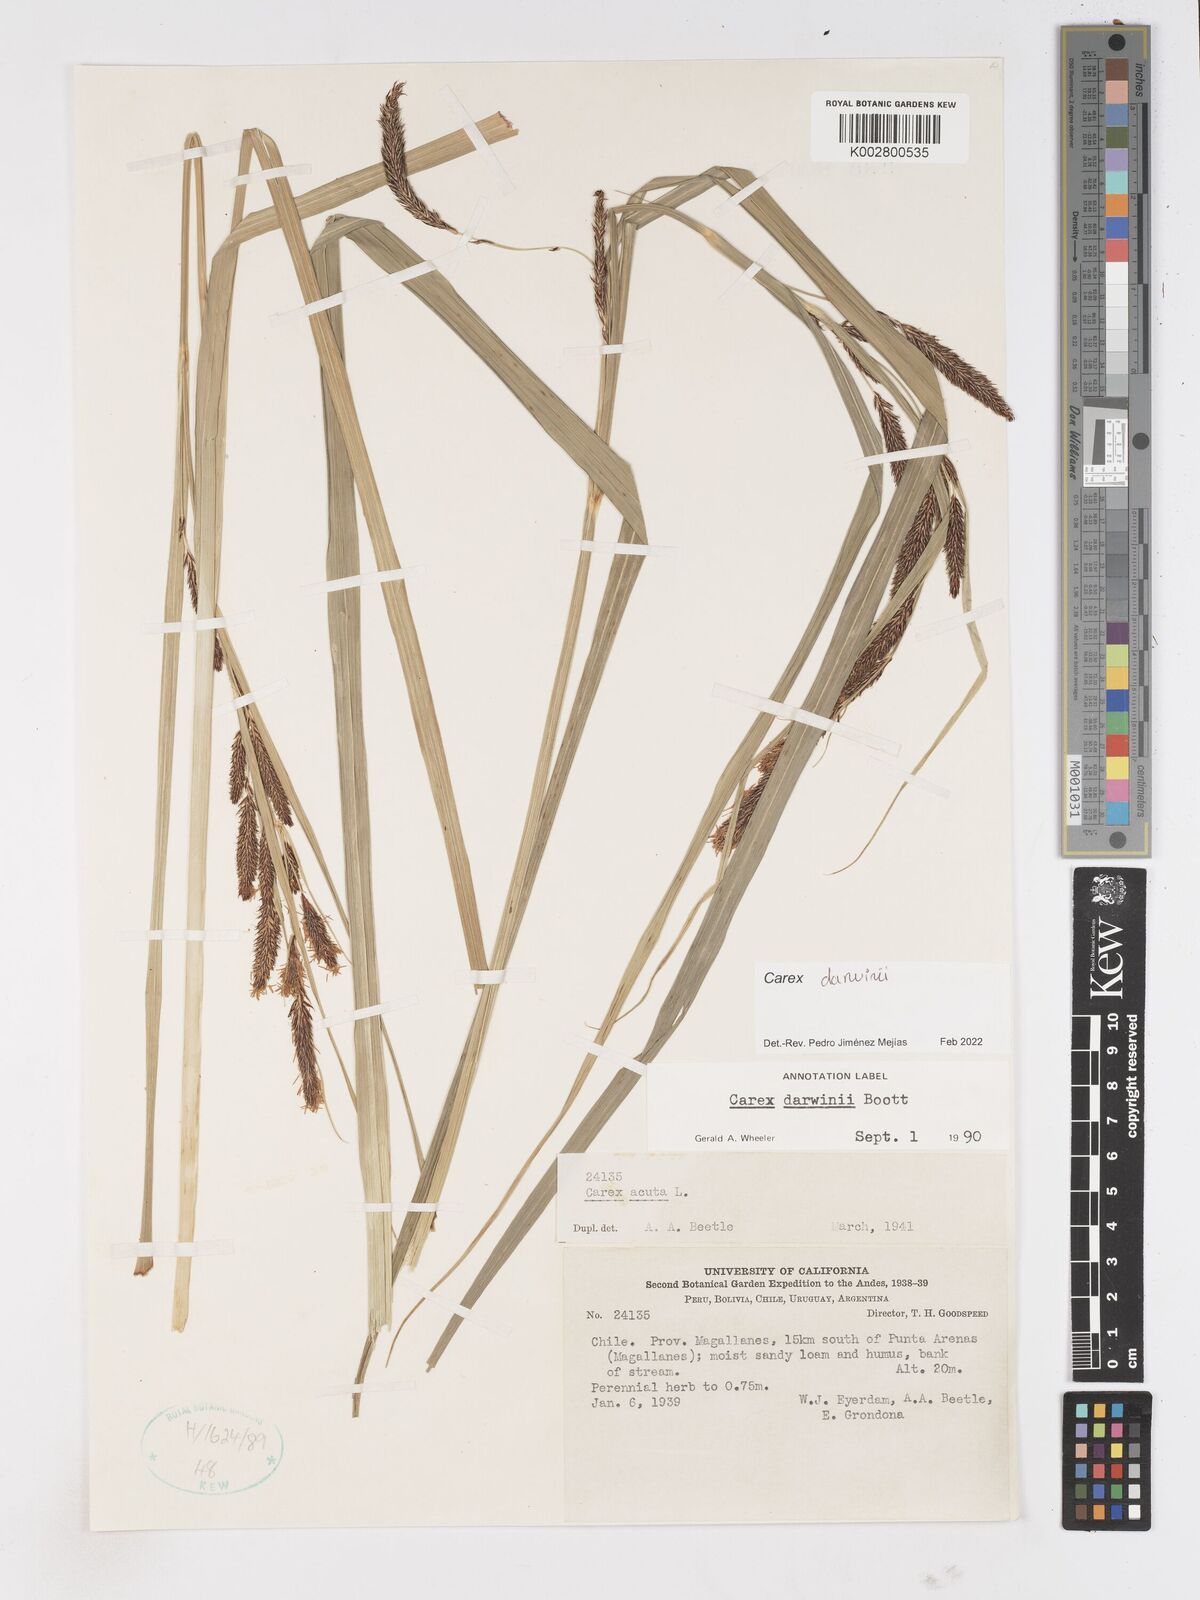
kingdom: Plantae
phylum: Tracheophyta
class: Liliopsida
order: Poales
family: Cyperaceae
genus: Carex
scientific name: Carex darwinii
